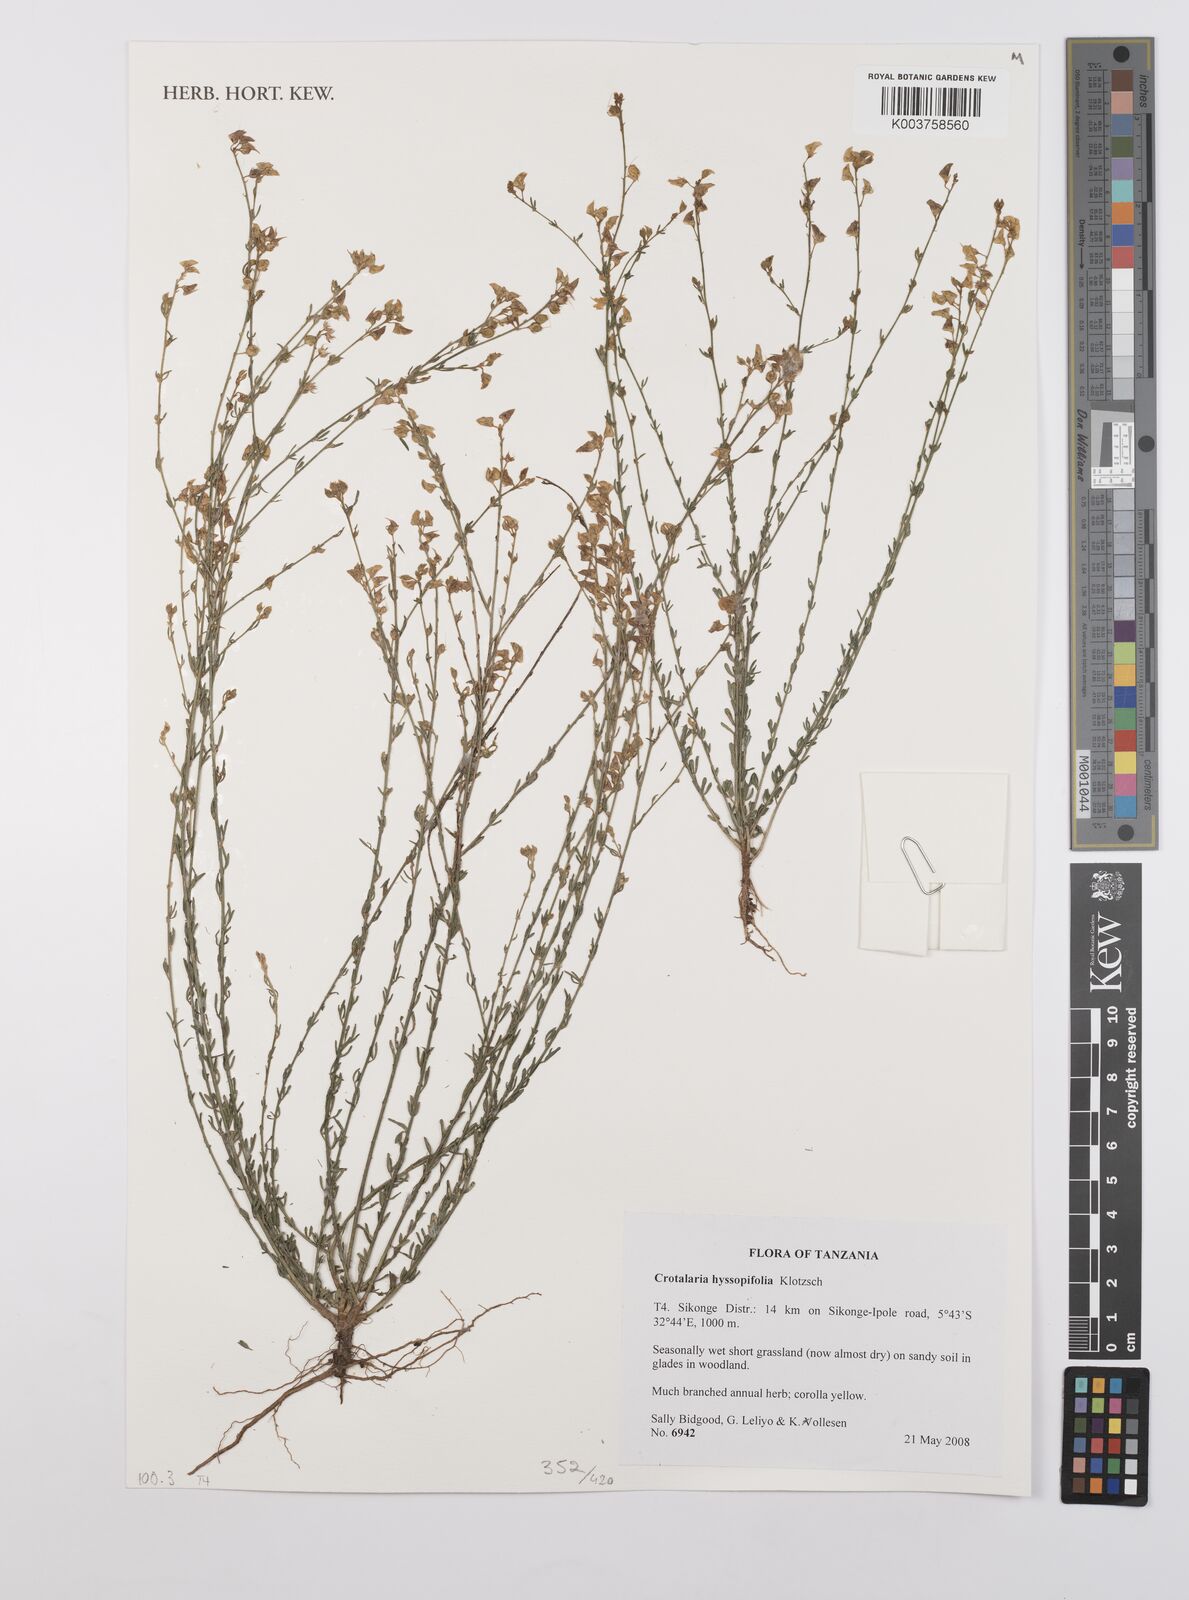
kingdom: Plantae
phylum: Tracheophyta
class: Magnoliopsida
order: Fabales
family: Fabaceae
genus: Crotalaria
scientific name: Crotalaria hyssopifolia
